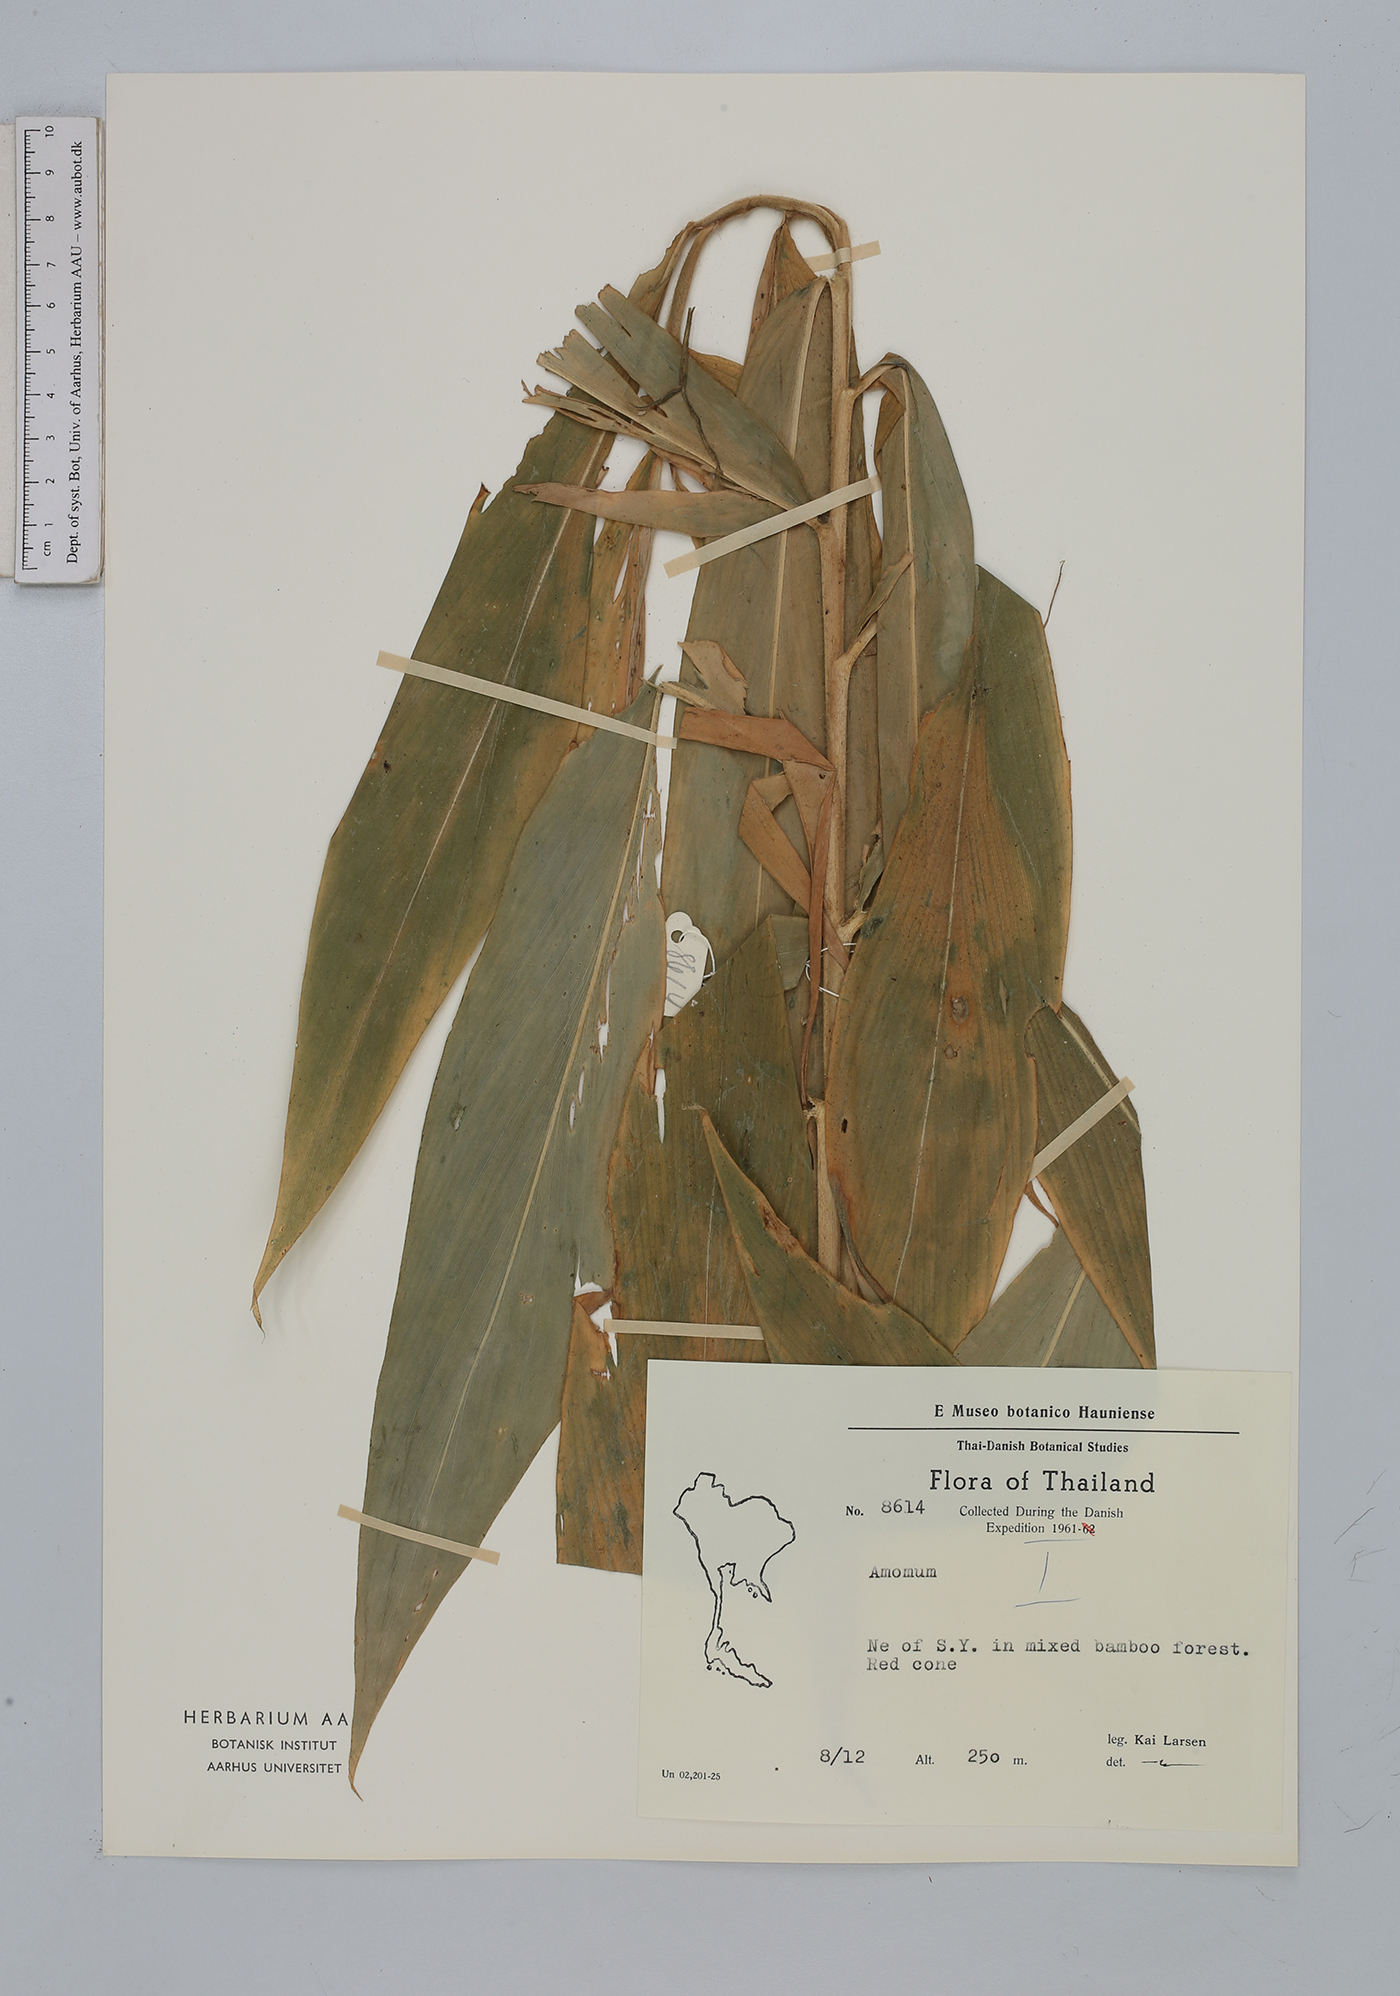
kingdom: Plantae
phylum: Tracheophyta
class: Liliopsida
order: Zingiberales
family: Zingiberaceae
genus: Amomum
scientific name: Amomum
